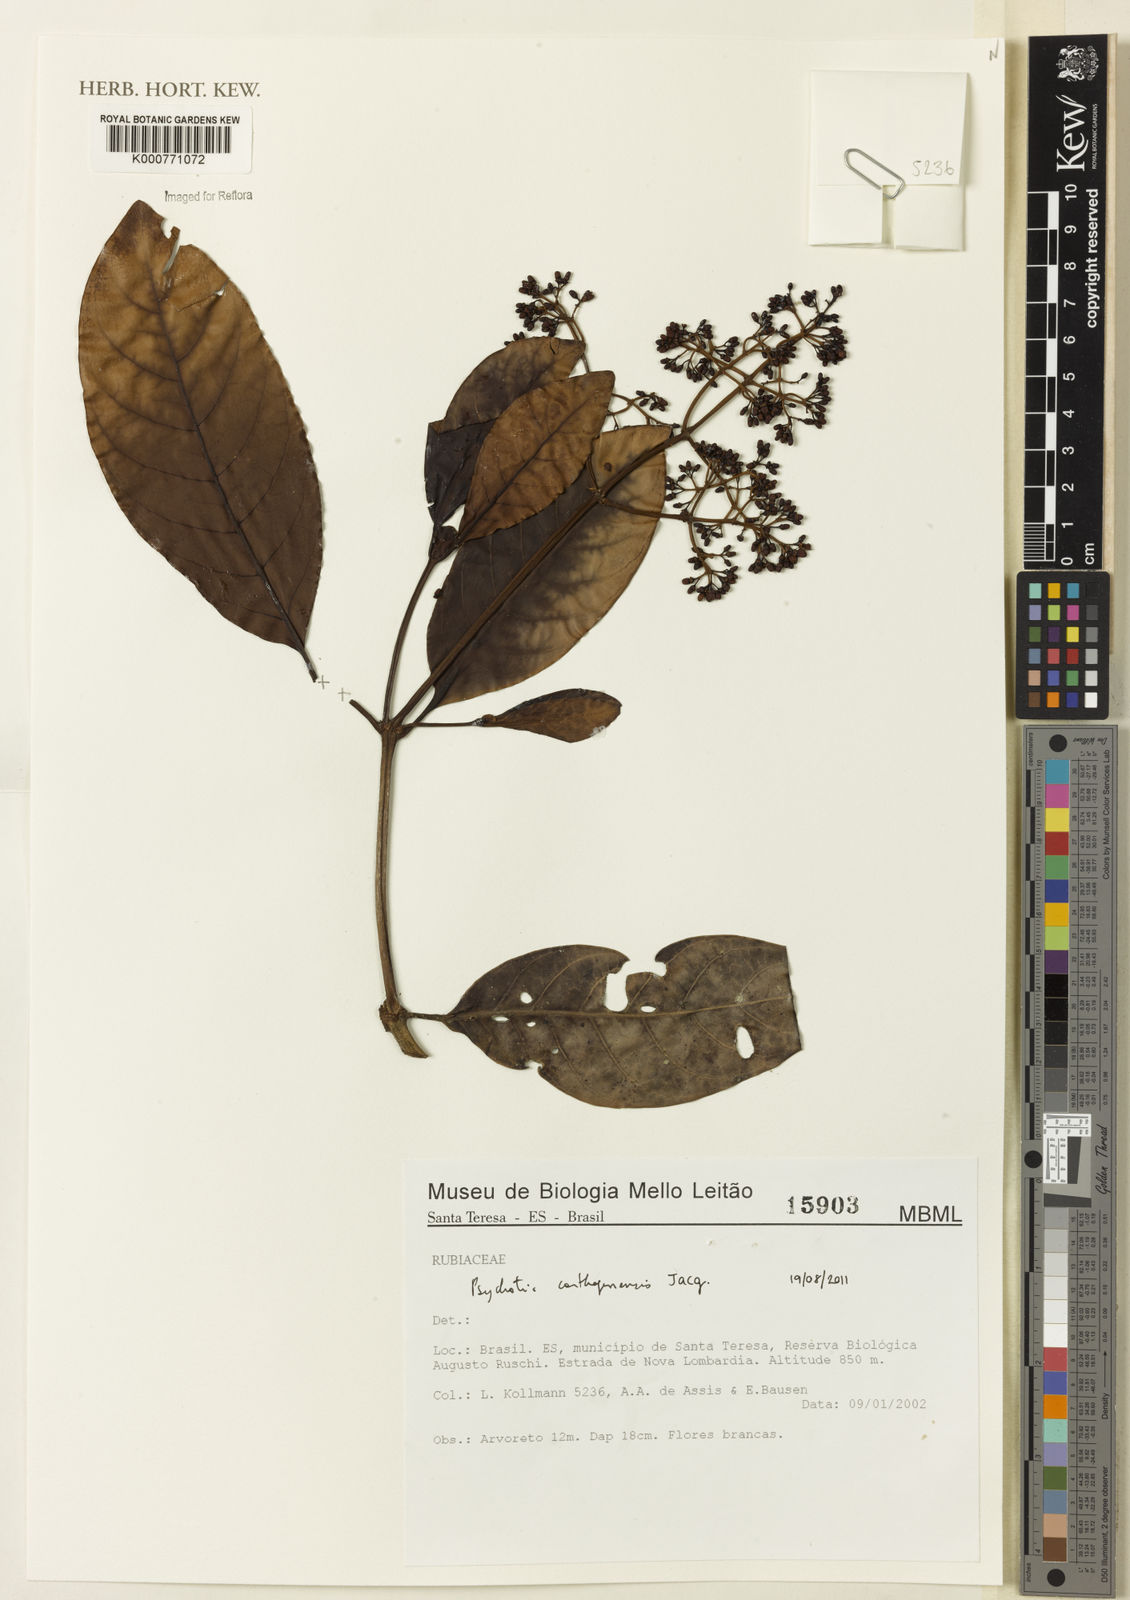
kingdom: Plantae
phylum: Tracheophyta
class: Magnoliopsida
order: Gentianales
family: Rubiaceae
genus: Psychotria
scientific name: Psychotria carthagenensis
